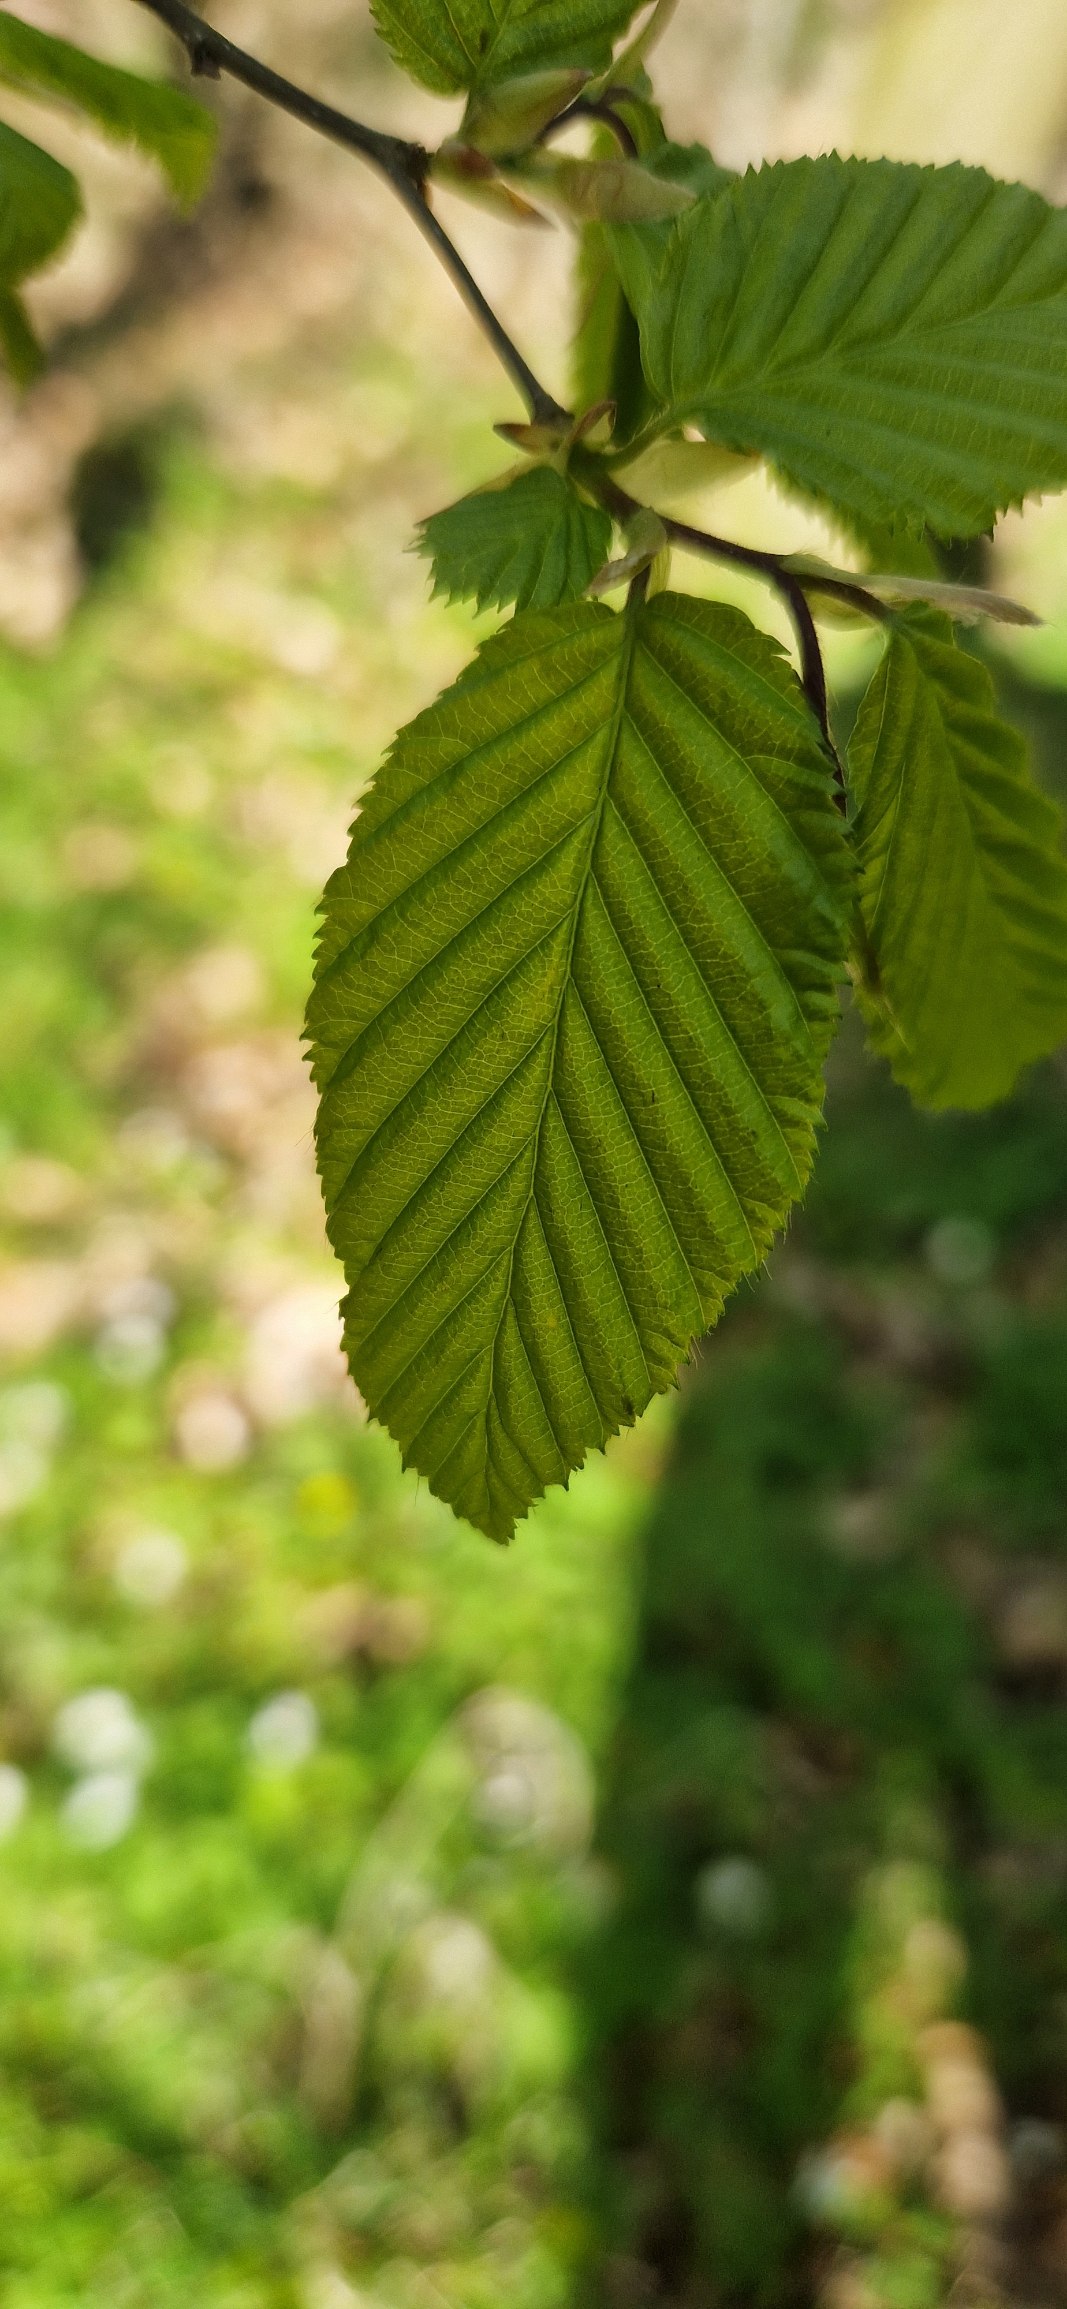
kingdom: Plantae
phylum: Tracheophyta
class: Magnoliopsida
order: Fagales
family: Betulaceae
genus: Carpinus
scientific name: Carpinus betulus
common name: Avnbøg
